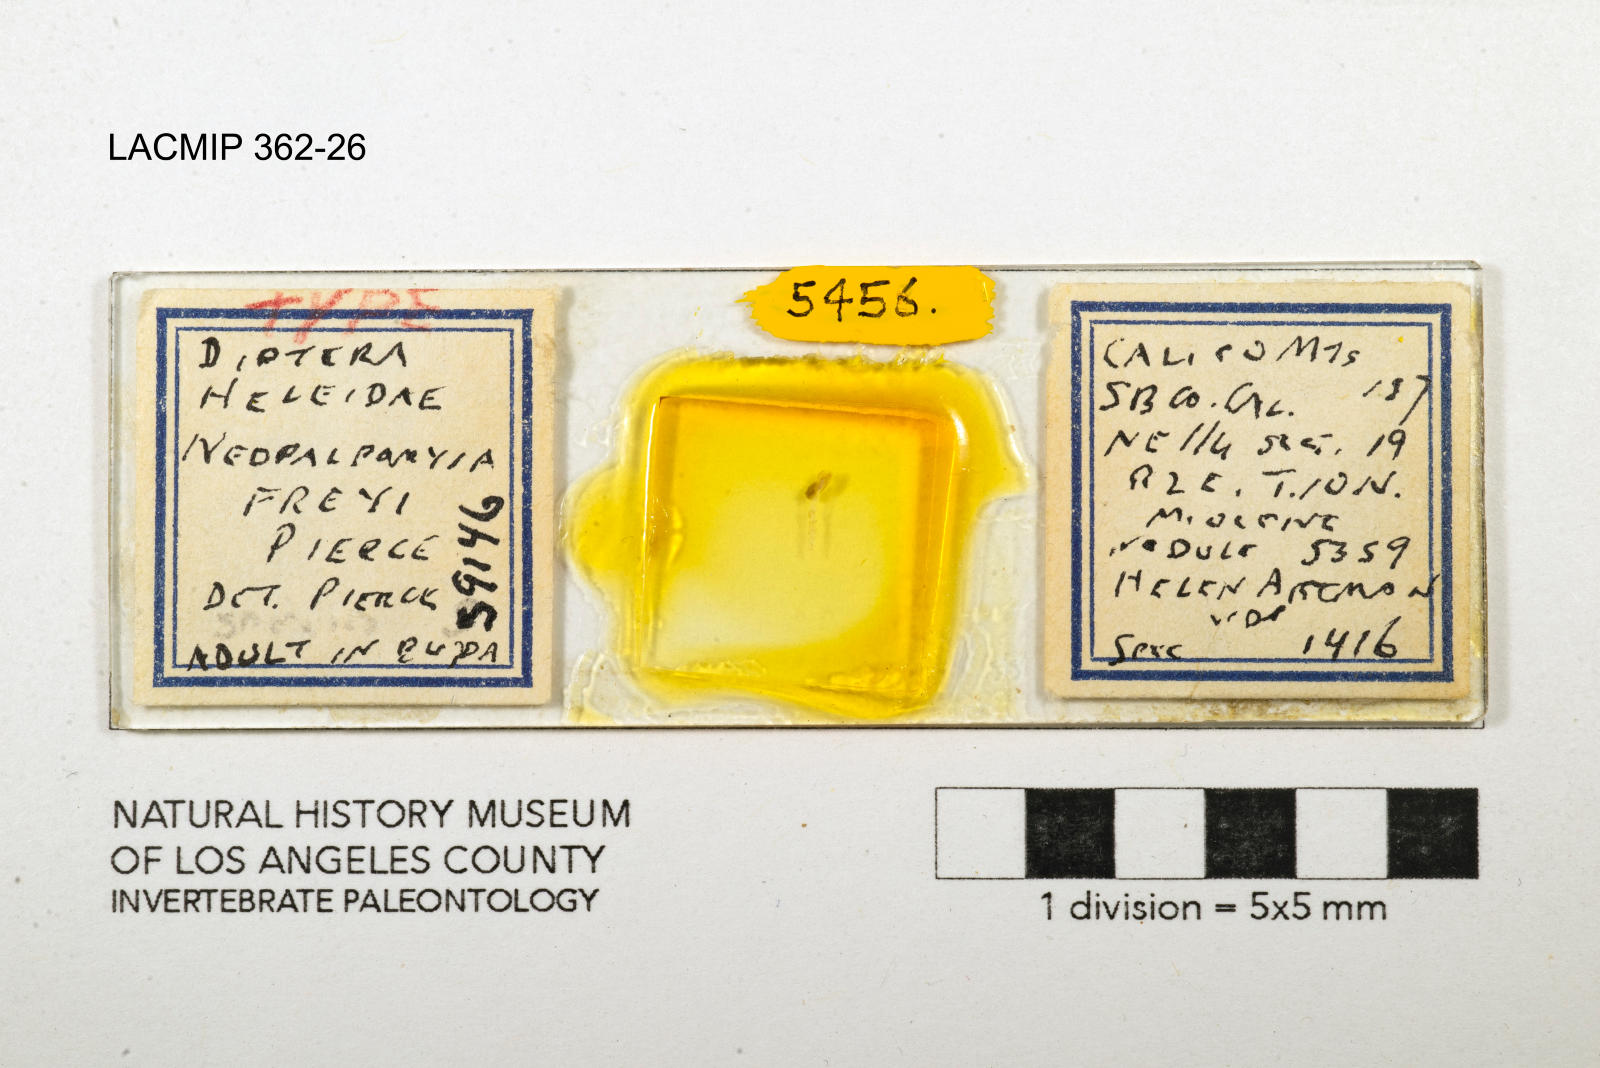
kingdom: Animalia
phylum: Arthropoda
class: Insecta
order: Diptera
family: Ceratopogonidae
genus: Palpomyia
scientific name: Palpomyia freyi
